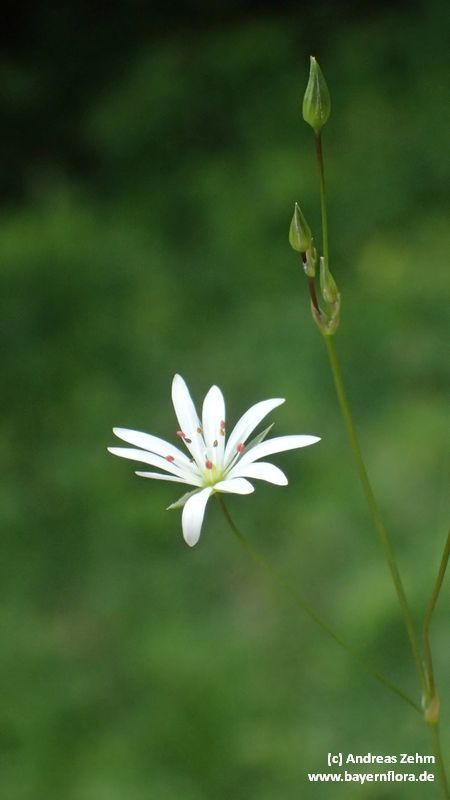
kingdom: Plantae
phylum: Tracheophyta
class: Magnoliopsida
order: Caryophyllales
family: Caryophyllaceae
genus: Stellaria
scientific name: Stellaria graminea
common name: Grass-like starwort
